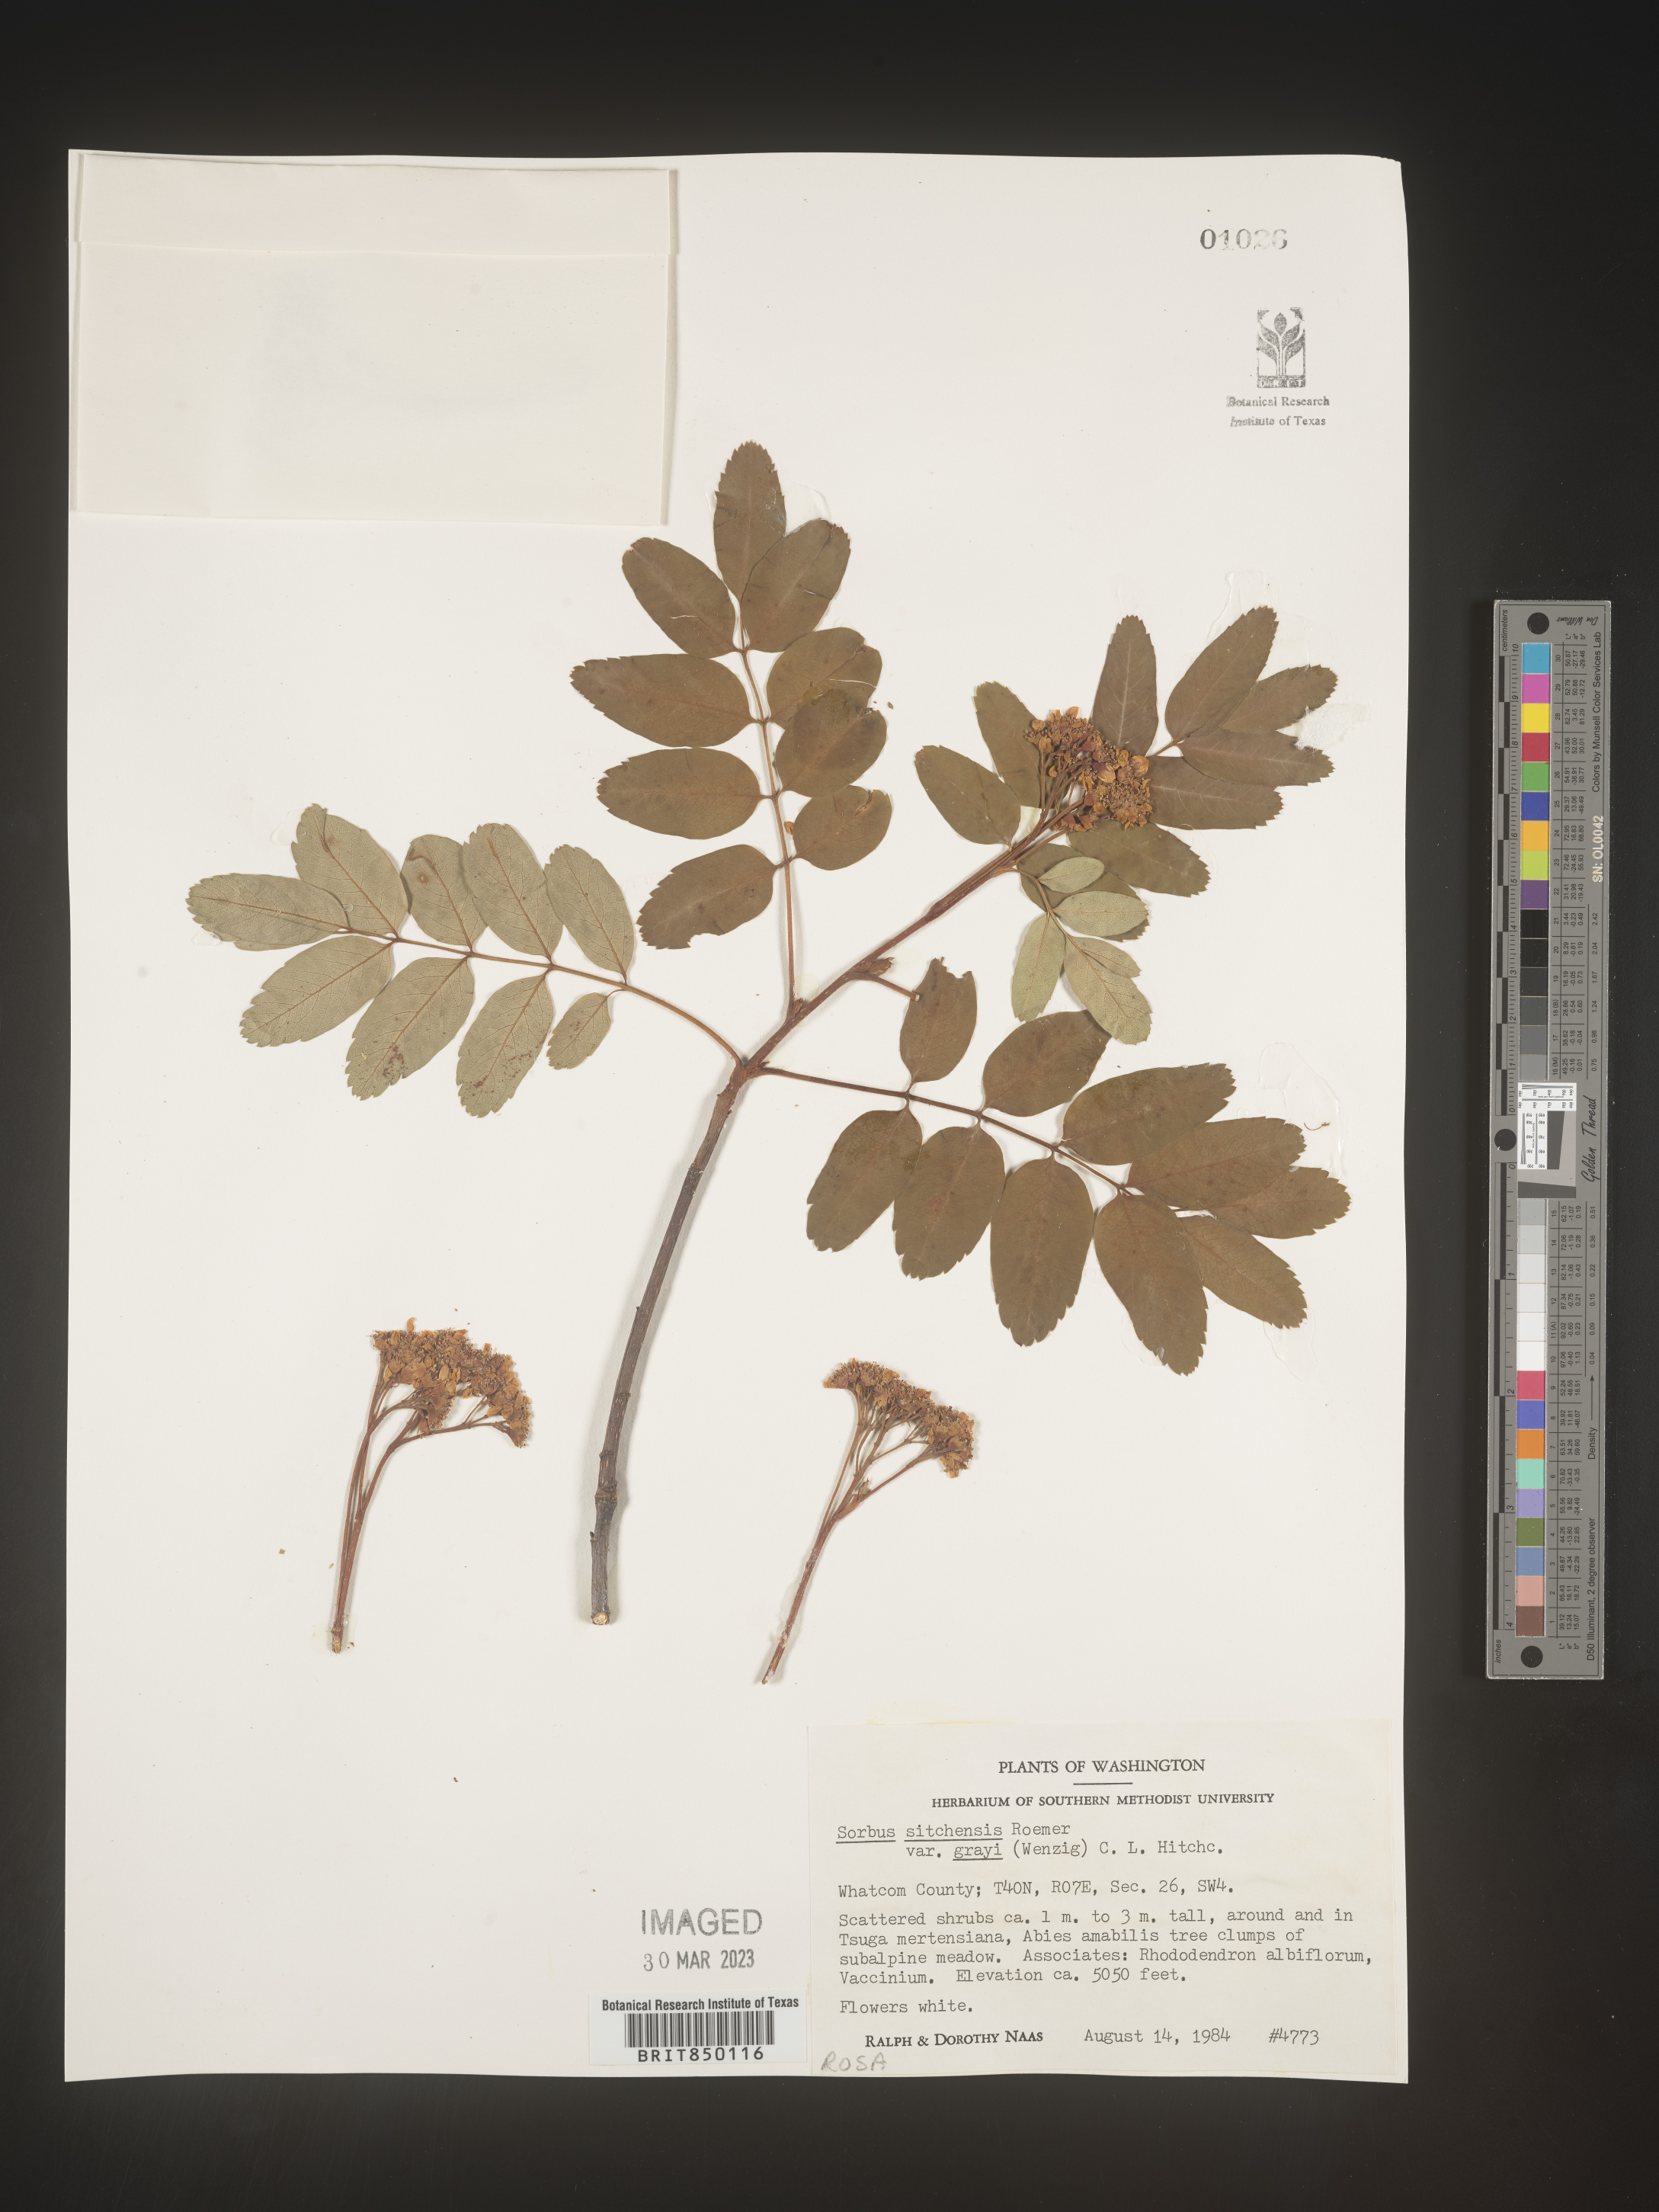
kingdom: Plantae
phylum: Tracheophyta
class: Magnoliopsida
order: Rosales
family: Rosaceae
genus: Sorbus
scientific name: Sorbus
